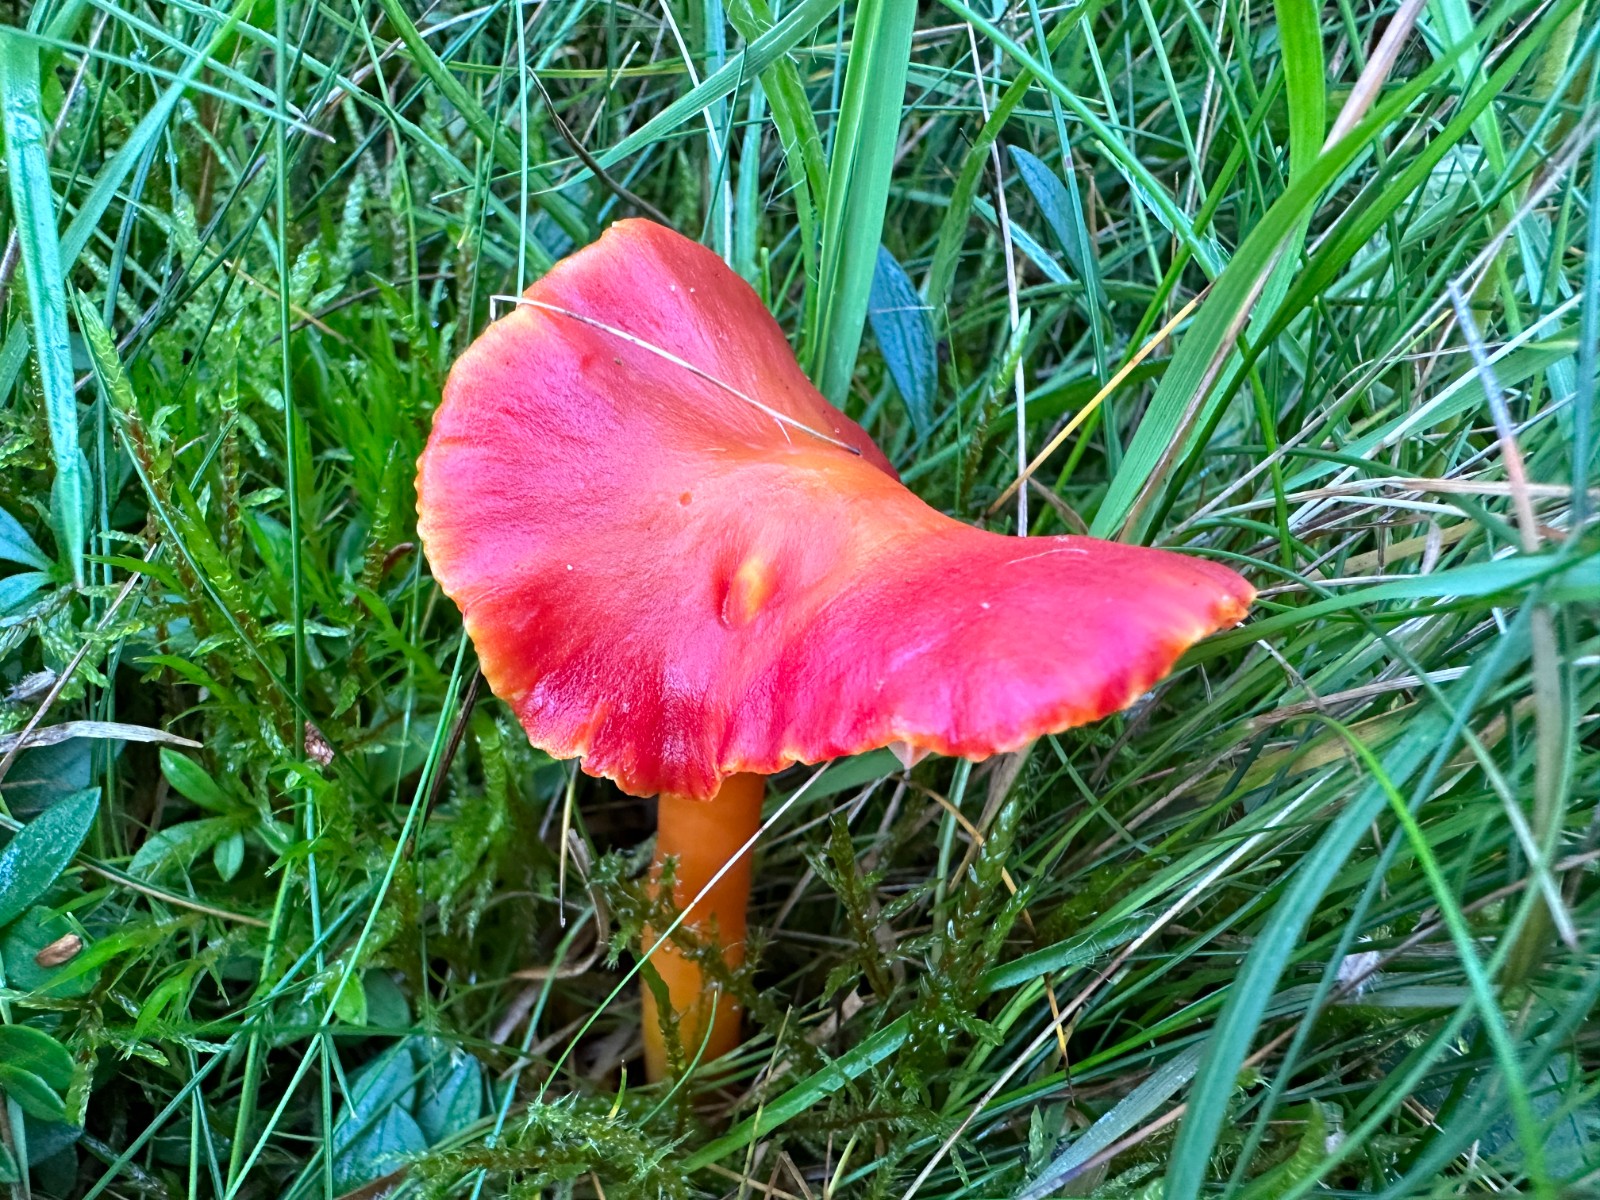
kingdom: Fungi
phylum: Basidiomycota
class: Agaricomycetes
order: Agaricales
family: Hygrophoraceae
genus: Hygrocybe
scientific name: Hygrocybe coccinea
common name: cinnober-vokshat
